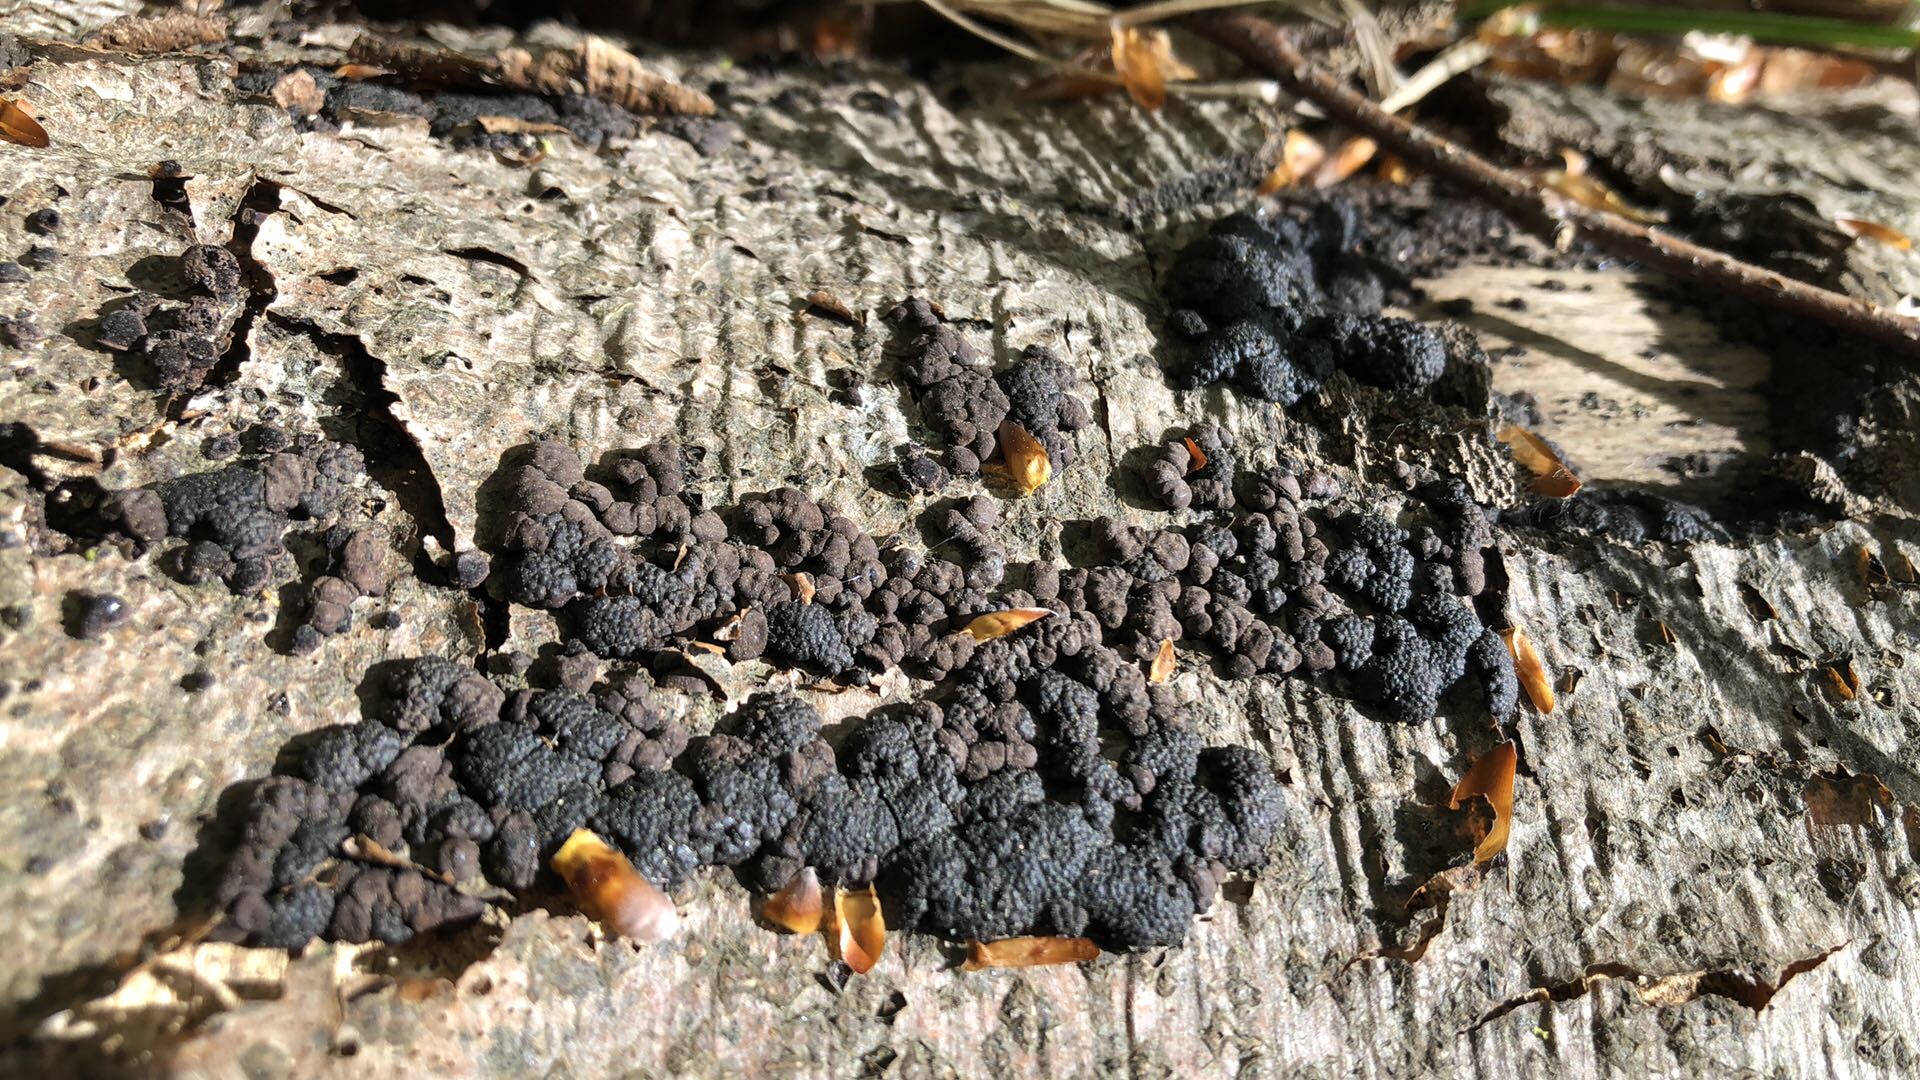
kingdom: Fungi
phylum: Ascomycota
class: Sordariomycetes
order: Xylariales
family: Hypoxylaceae
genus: Jackrogersella
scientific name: Jackrogersella cohaerens
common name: sammenflydende kulbær
